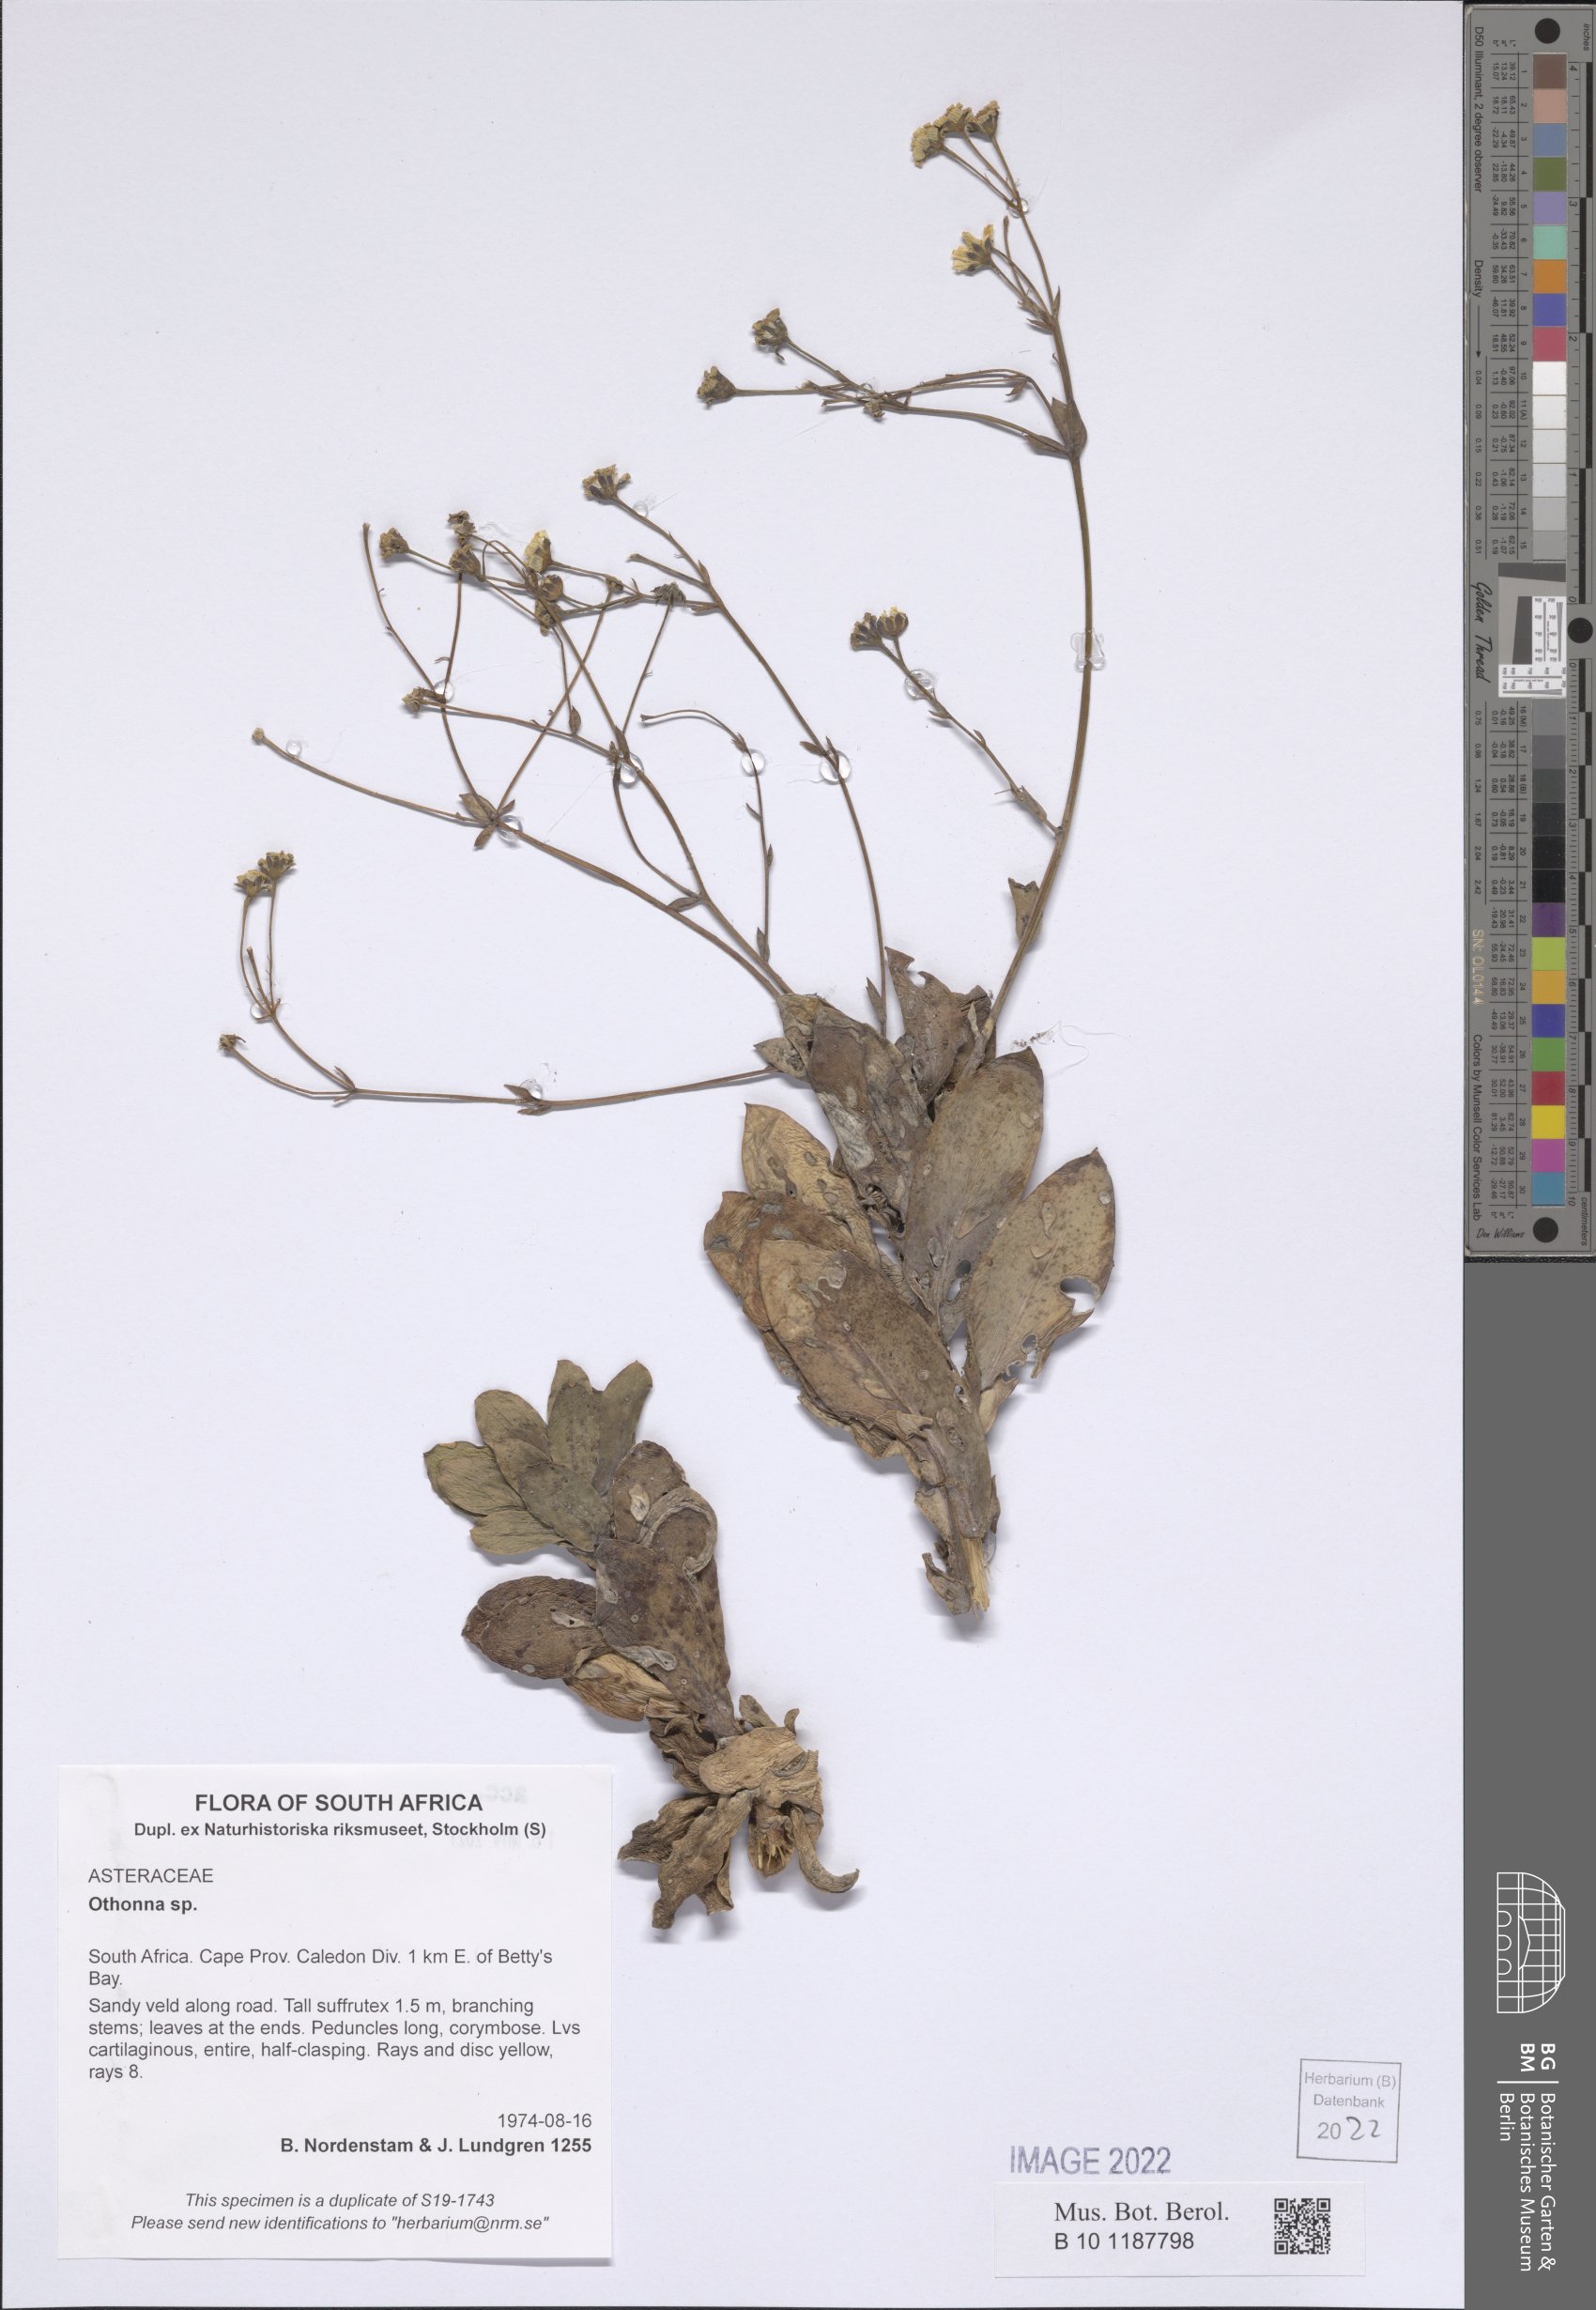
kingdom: Plantae
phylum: Tracheophyta
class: Magnoliopsida
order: Asterales
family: Asteraceae
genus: Othonna
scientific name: Othonna
